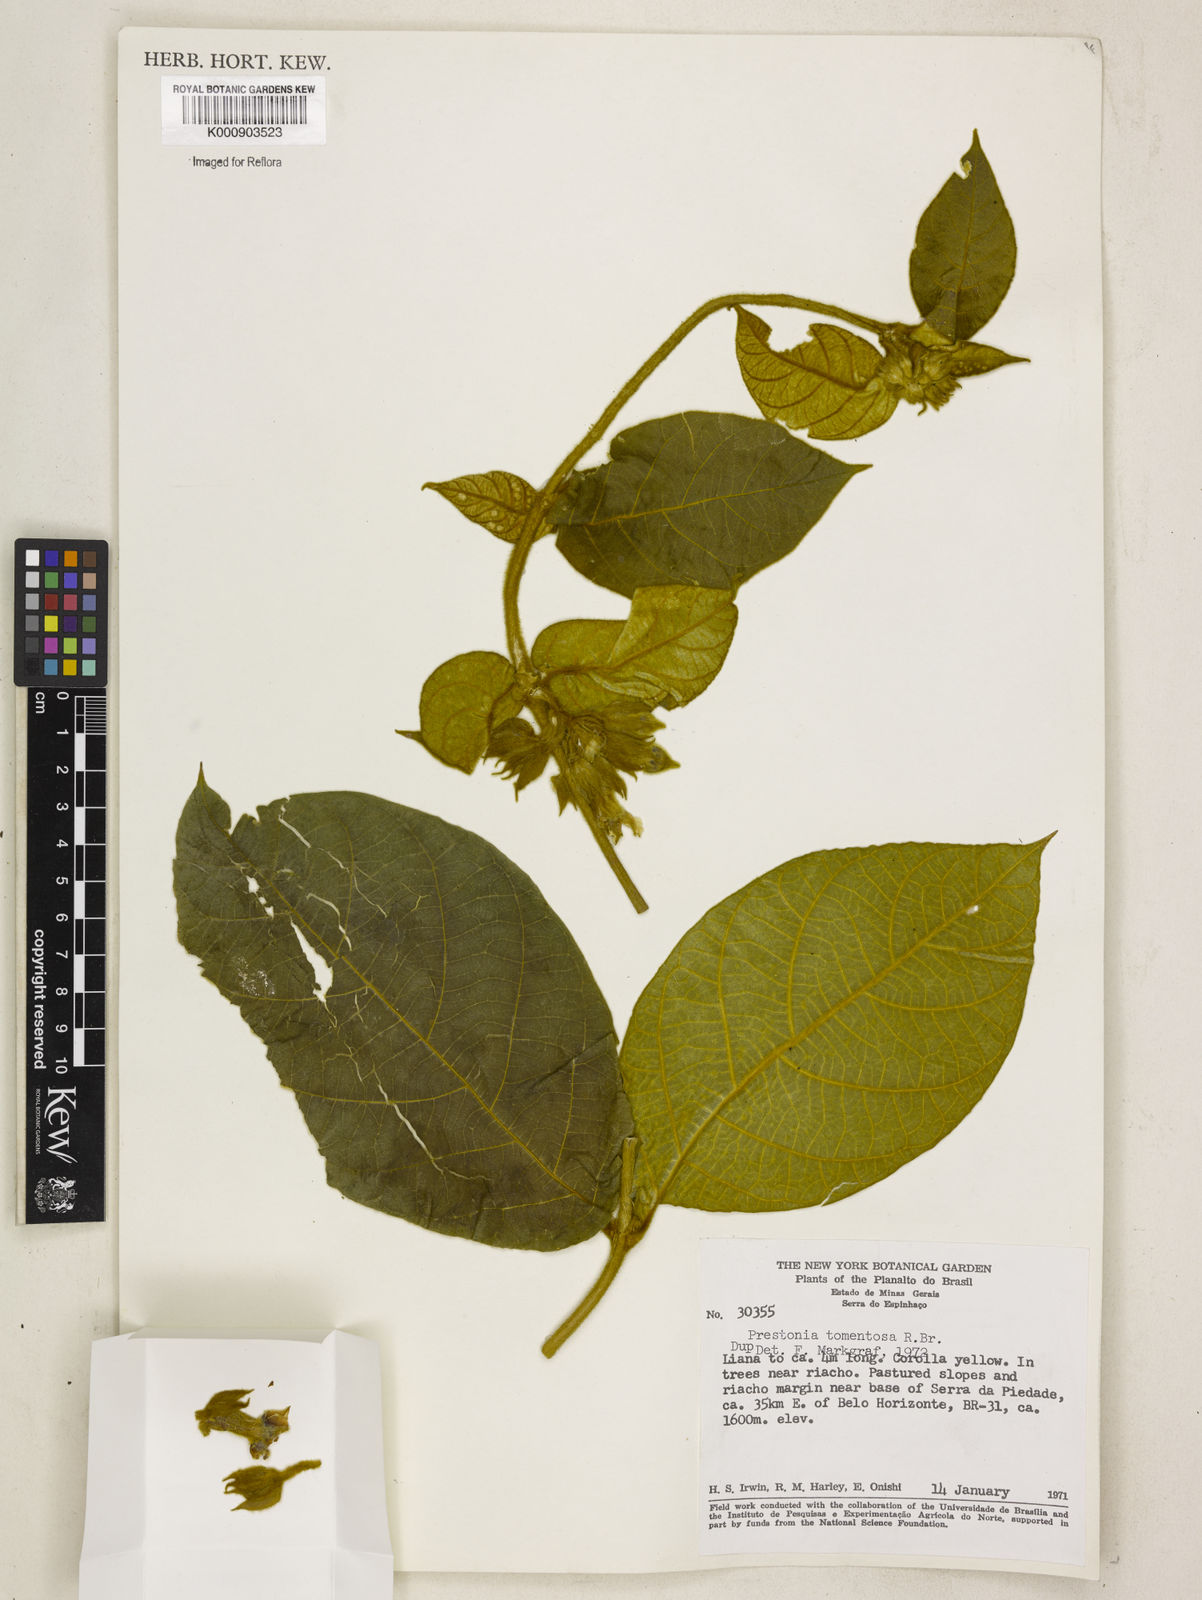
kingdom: Plantae
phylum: Tracheophyta
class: Magnoliopsida
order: Gentianales
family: Apocynaceae
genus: Prestonia
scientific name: Prestonia tomentosa
